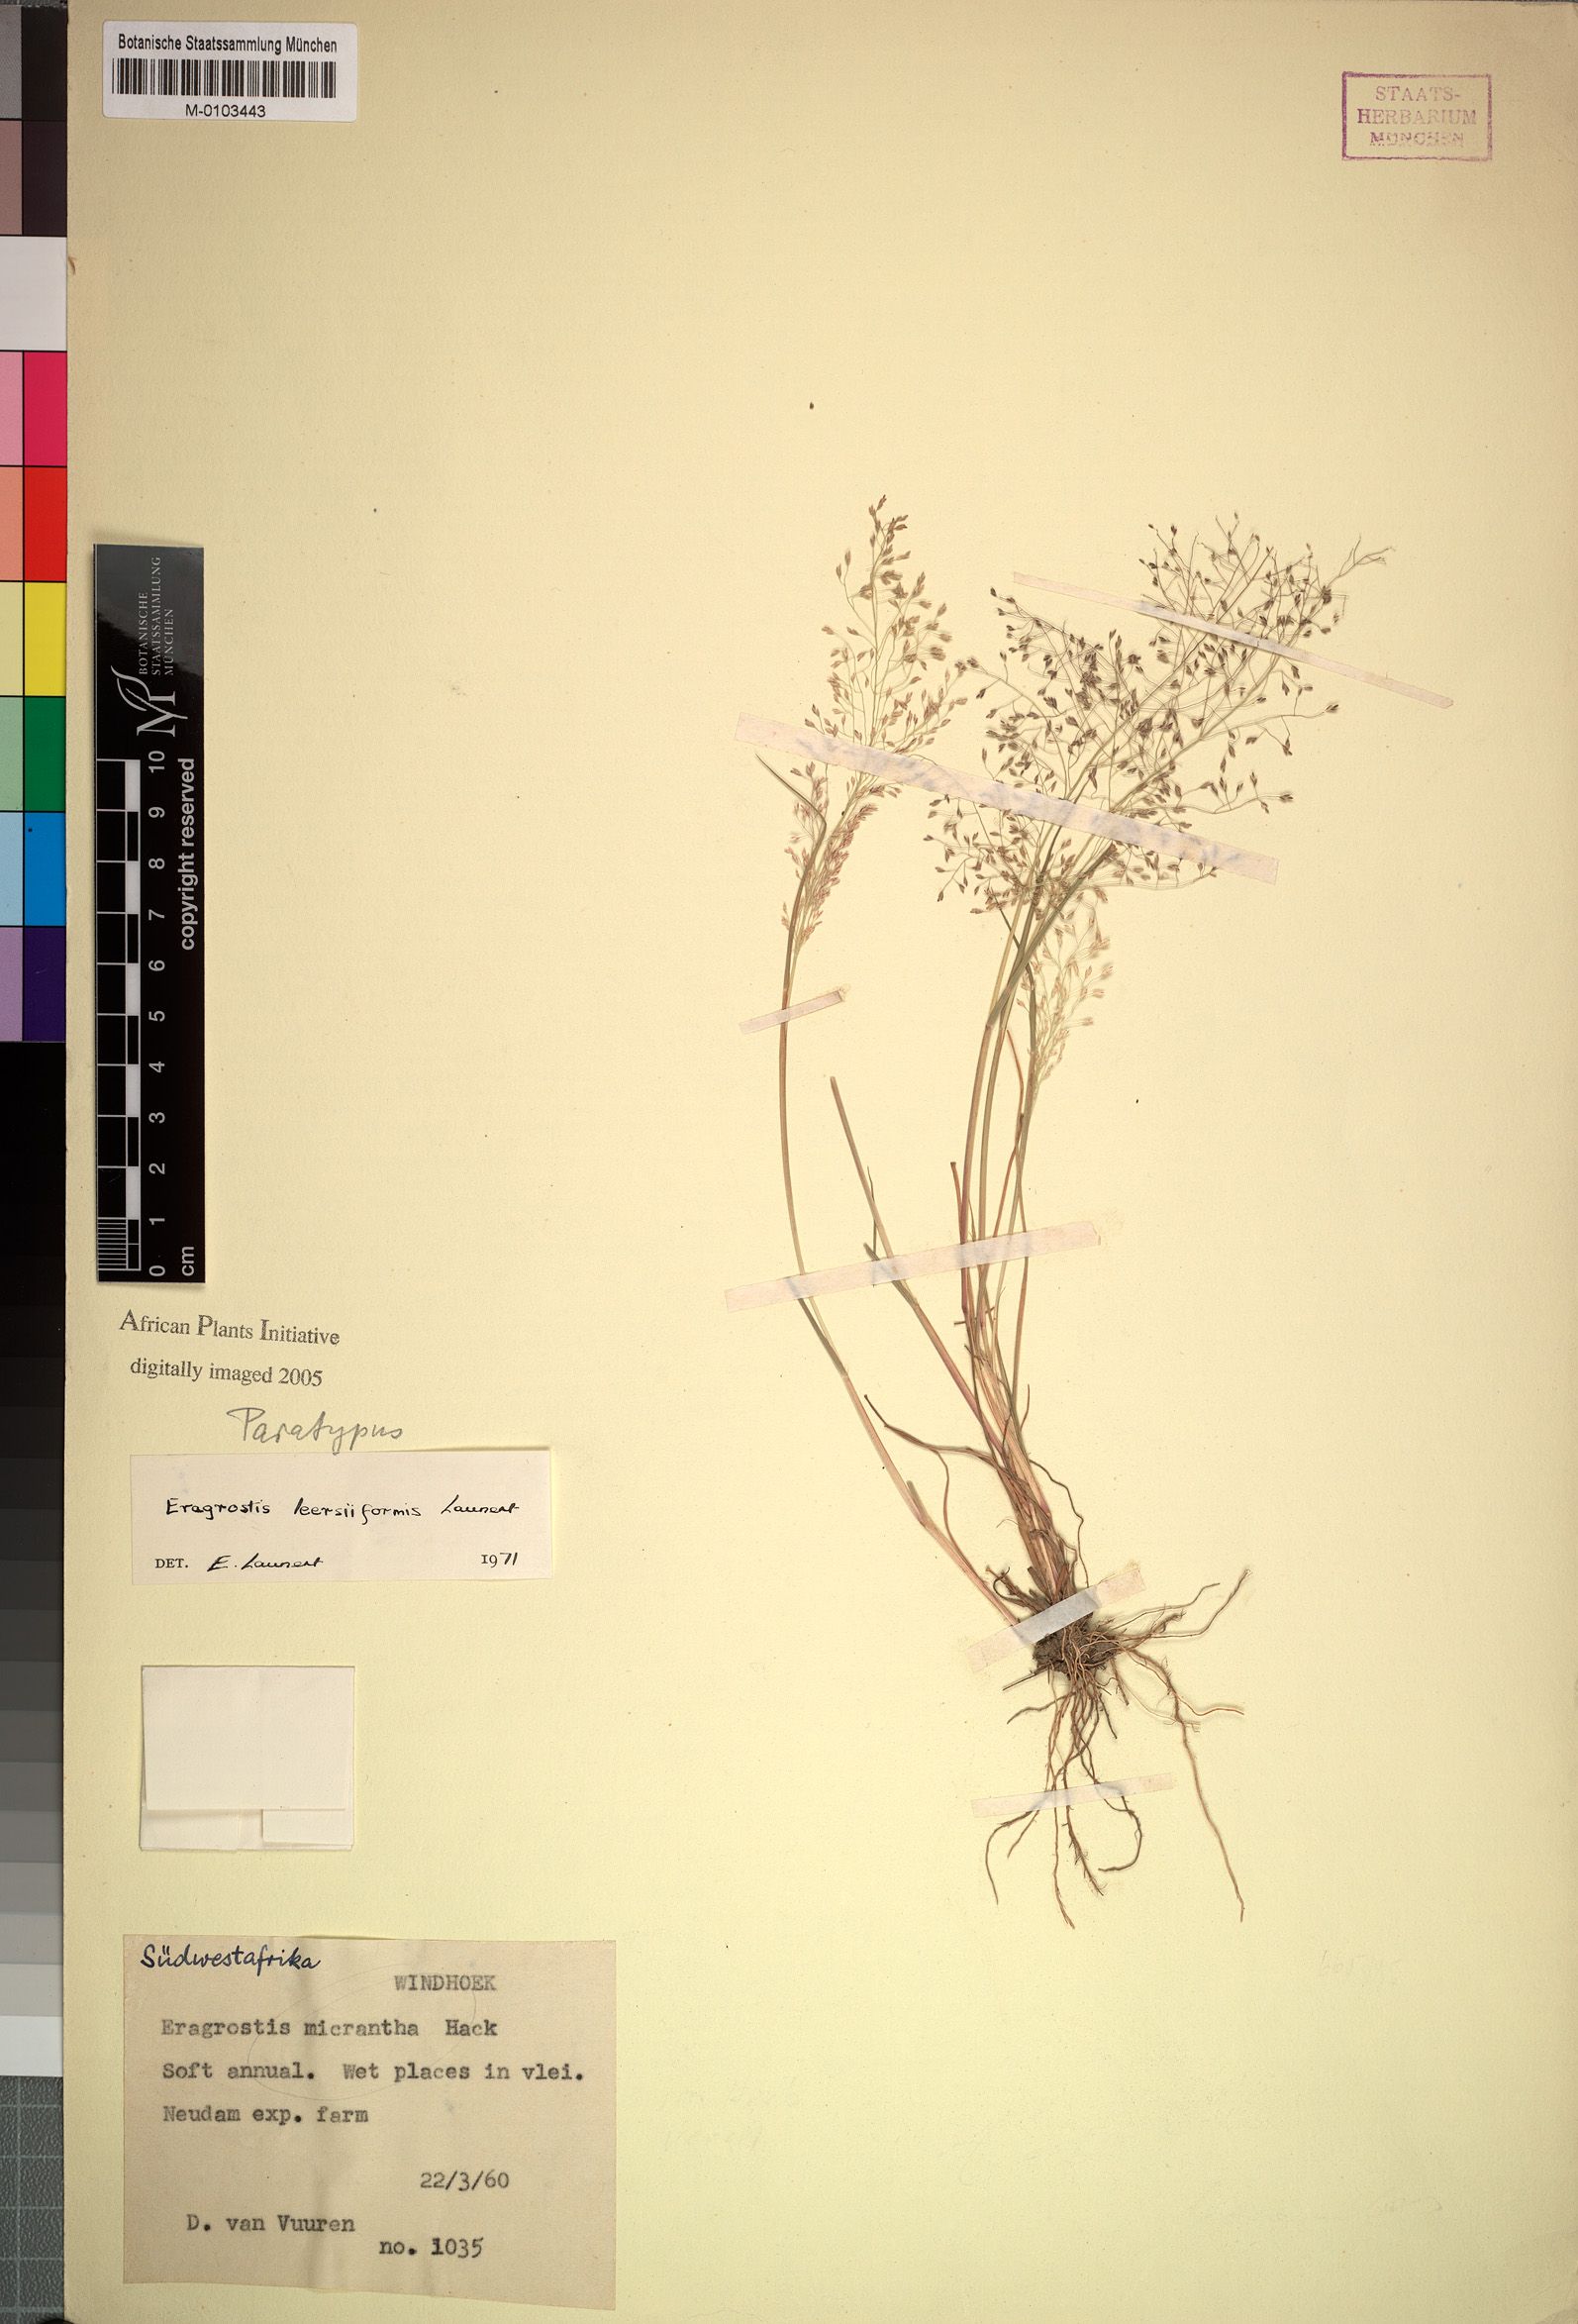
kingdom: Plantae
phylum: Tracheophyta
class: Liliopsida
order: Poales
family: Poaceae
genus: Eragrostis
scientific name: Eragrostis leersiiformis
